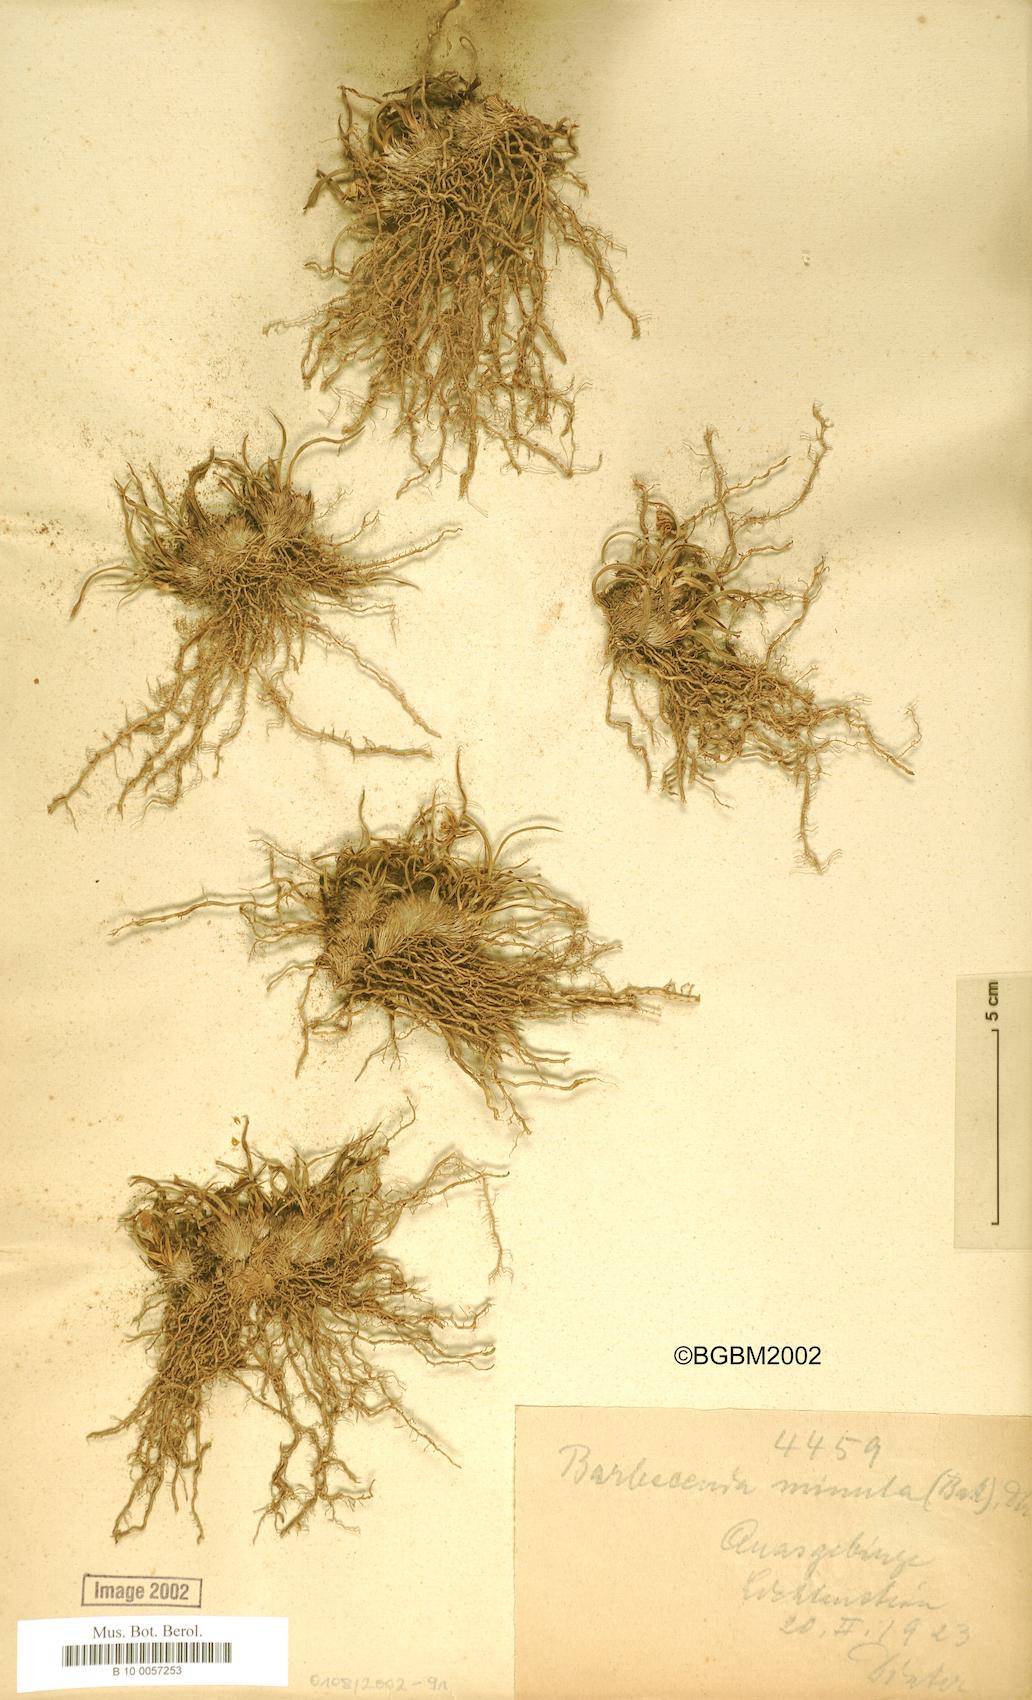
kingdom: Plantae
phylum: Tracheophyta
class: Liliopsida
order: Pandanales
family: Velloziaceae
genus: Xerophyta
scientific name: Xerophyta elegans
